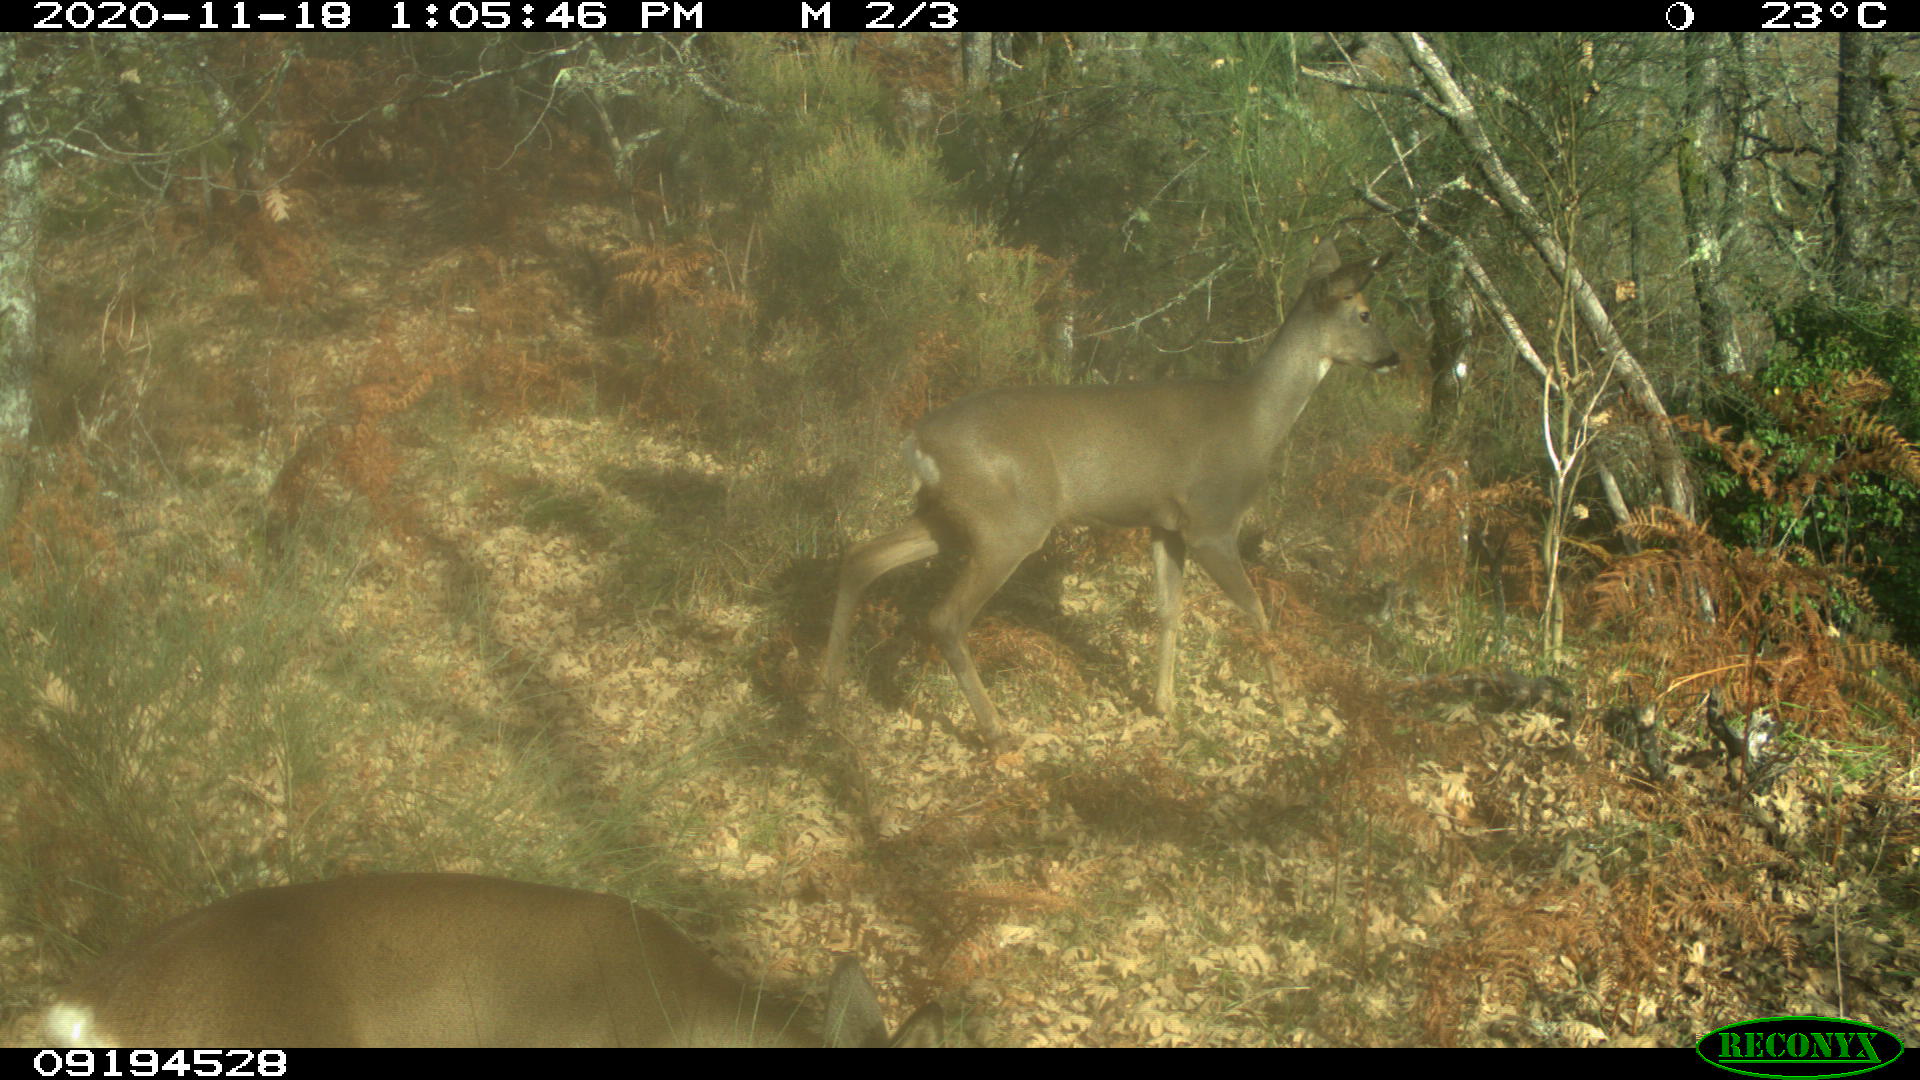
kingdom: Animalia
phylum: Chordata
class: Mammalia
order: Artiodactyla
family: Cervidae
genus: Capreolus
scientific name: Capreolus capreolus
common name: Western roe deer
